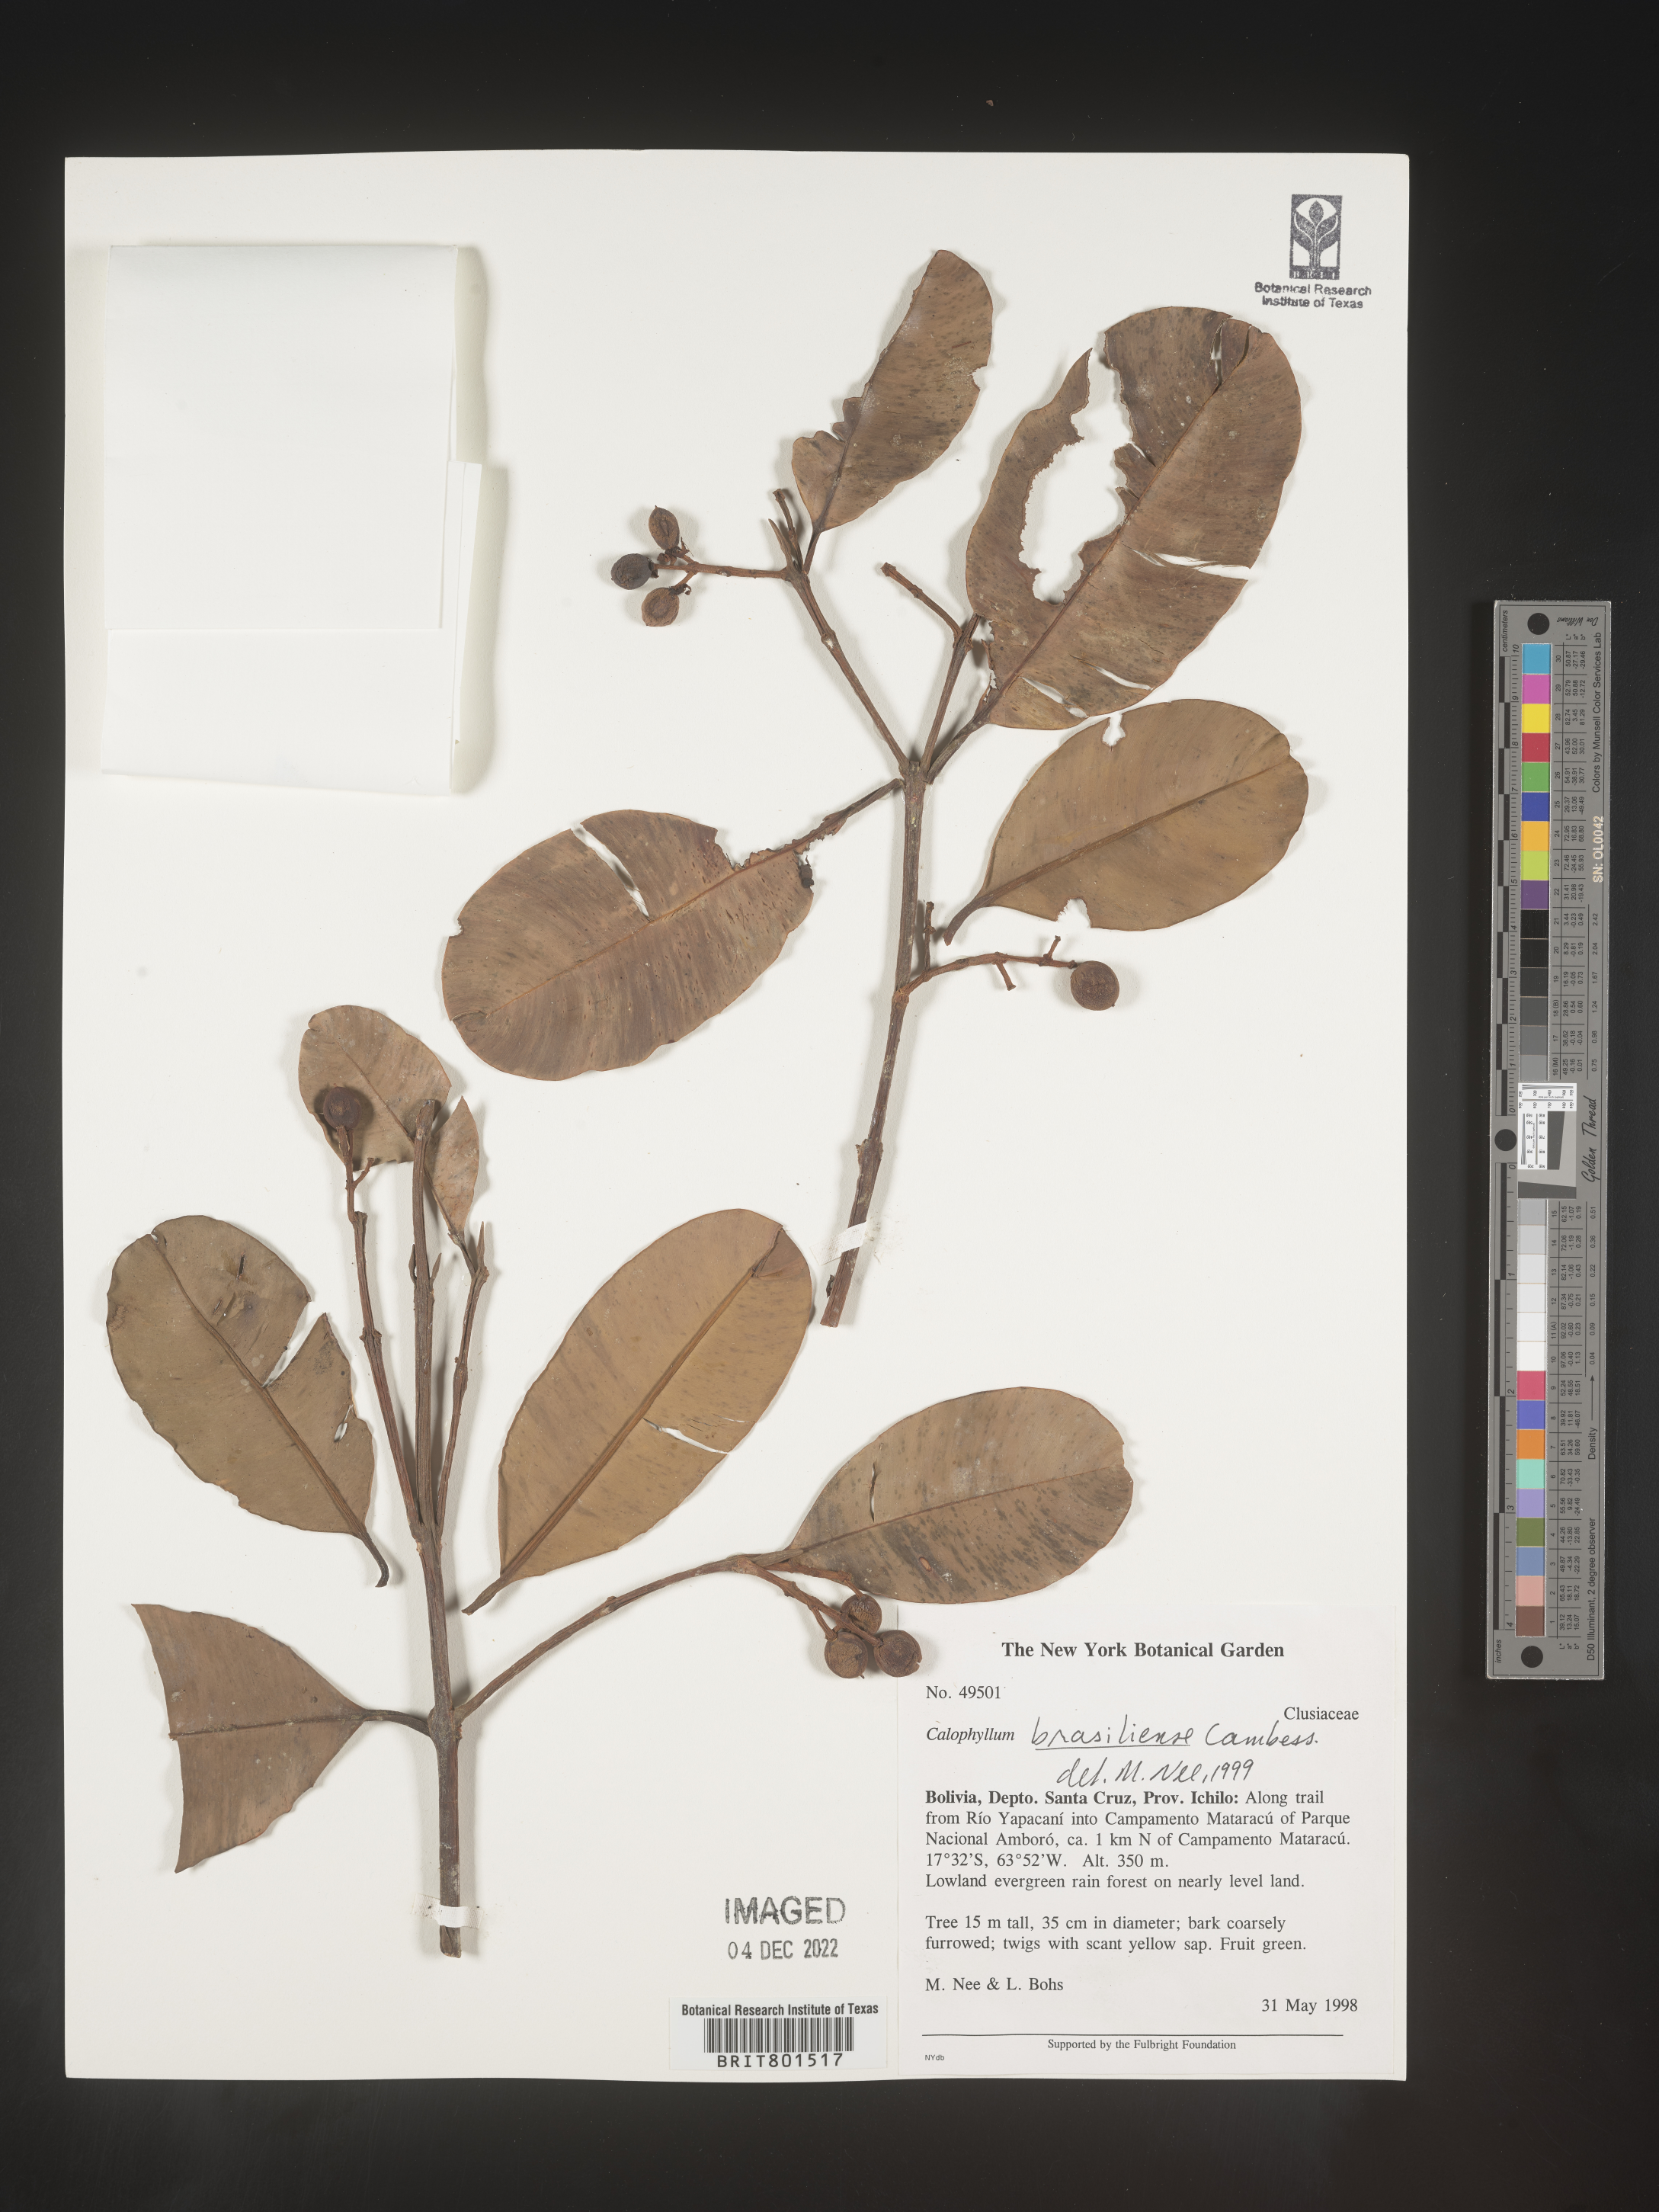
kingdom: Plantae
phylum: Tracheophyta
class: Magnoliopsida
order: Malpighiales
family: Calophyllaceae
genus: Calophyllum
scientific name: Calophyllum brasiliense
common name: Santa maria
